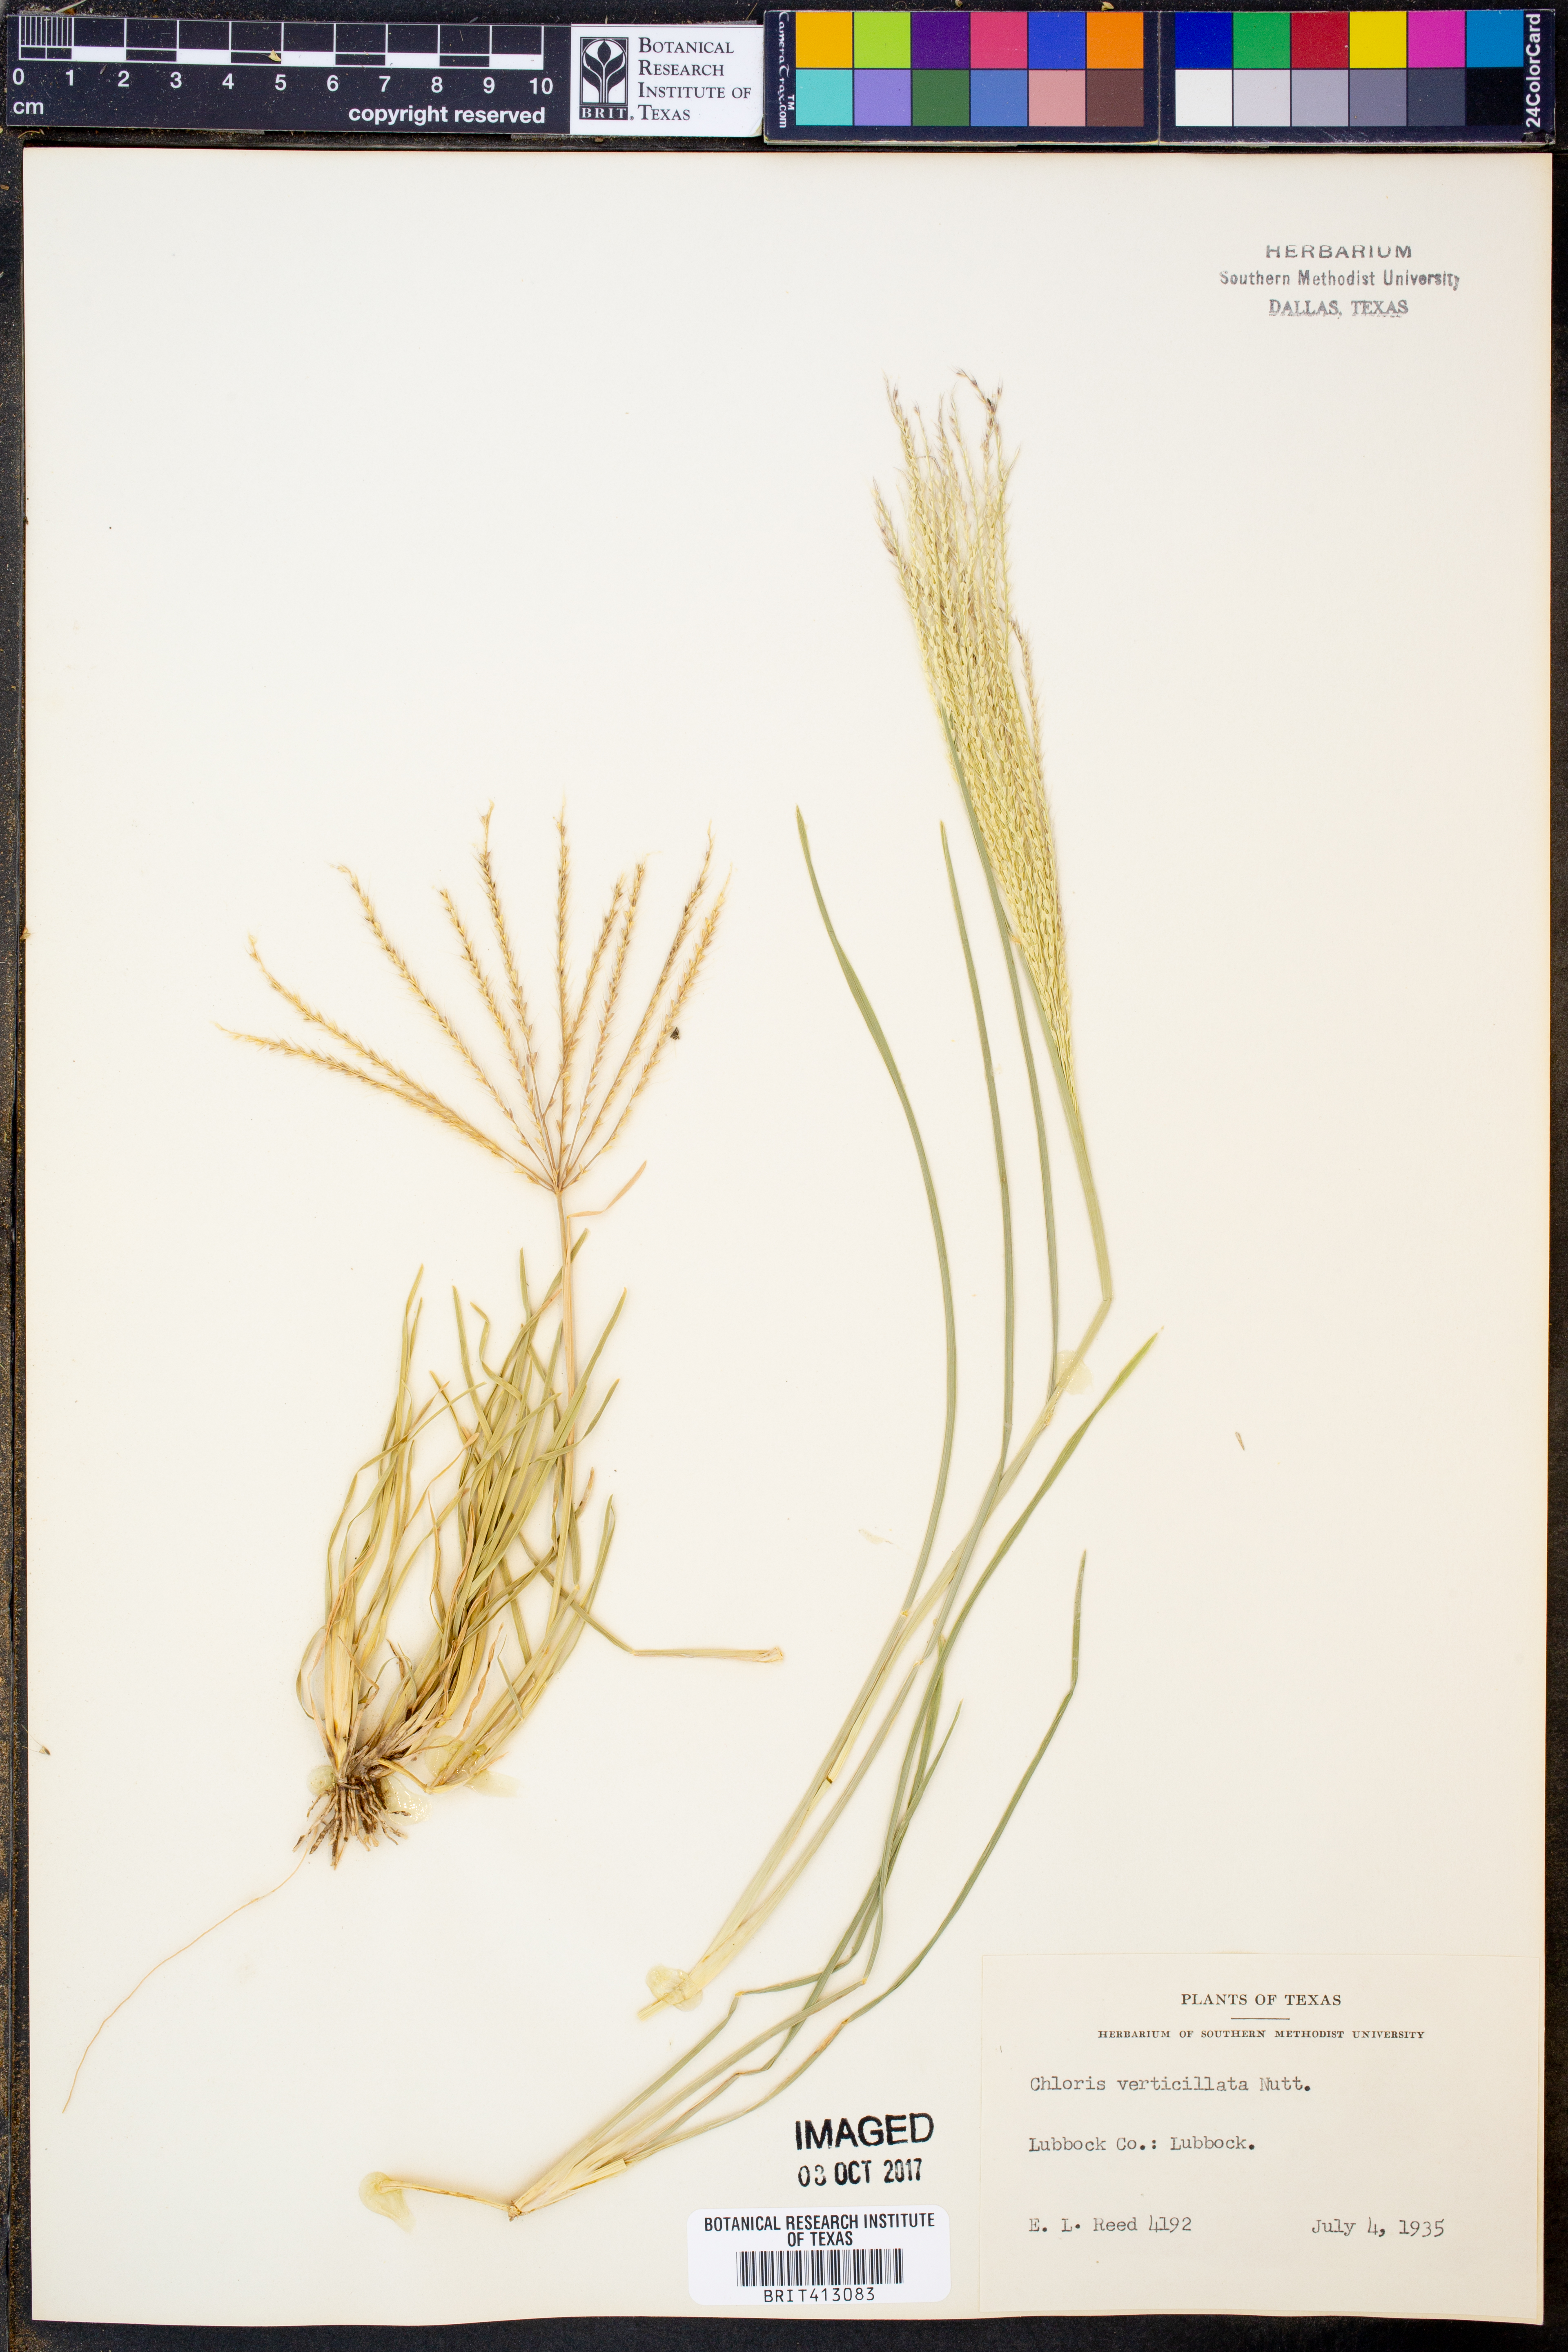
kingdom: Plantae
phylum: Tracheophyta
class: Liliopsida
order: Poales
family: Poaceae
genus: Chloris
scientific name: Chloris verticillata
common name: Tumble windmill grass
